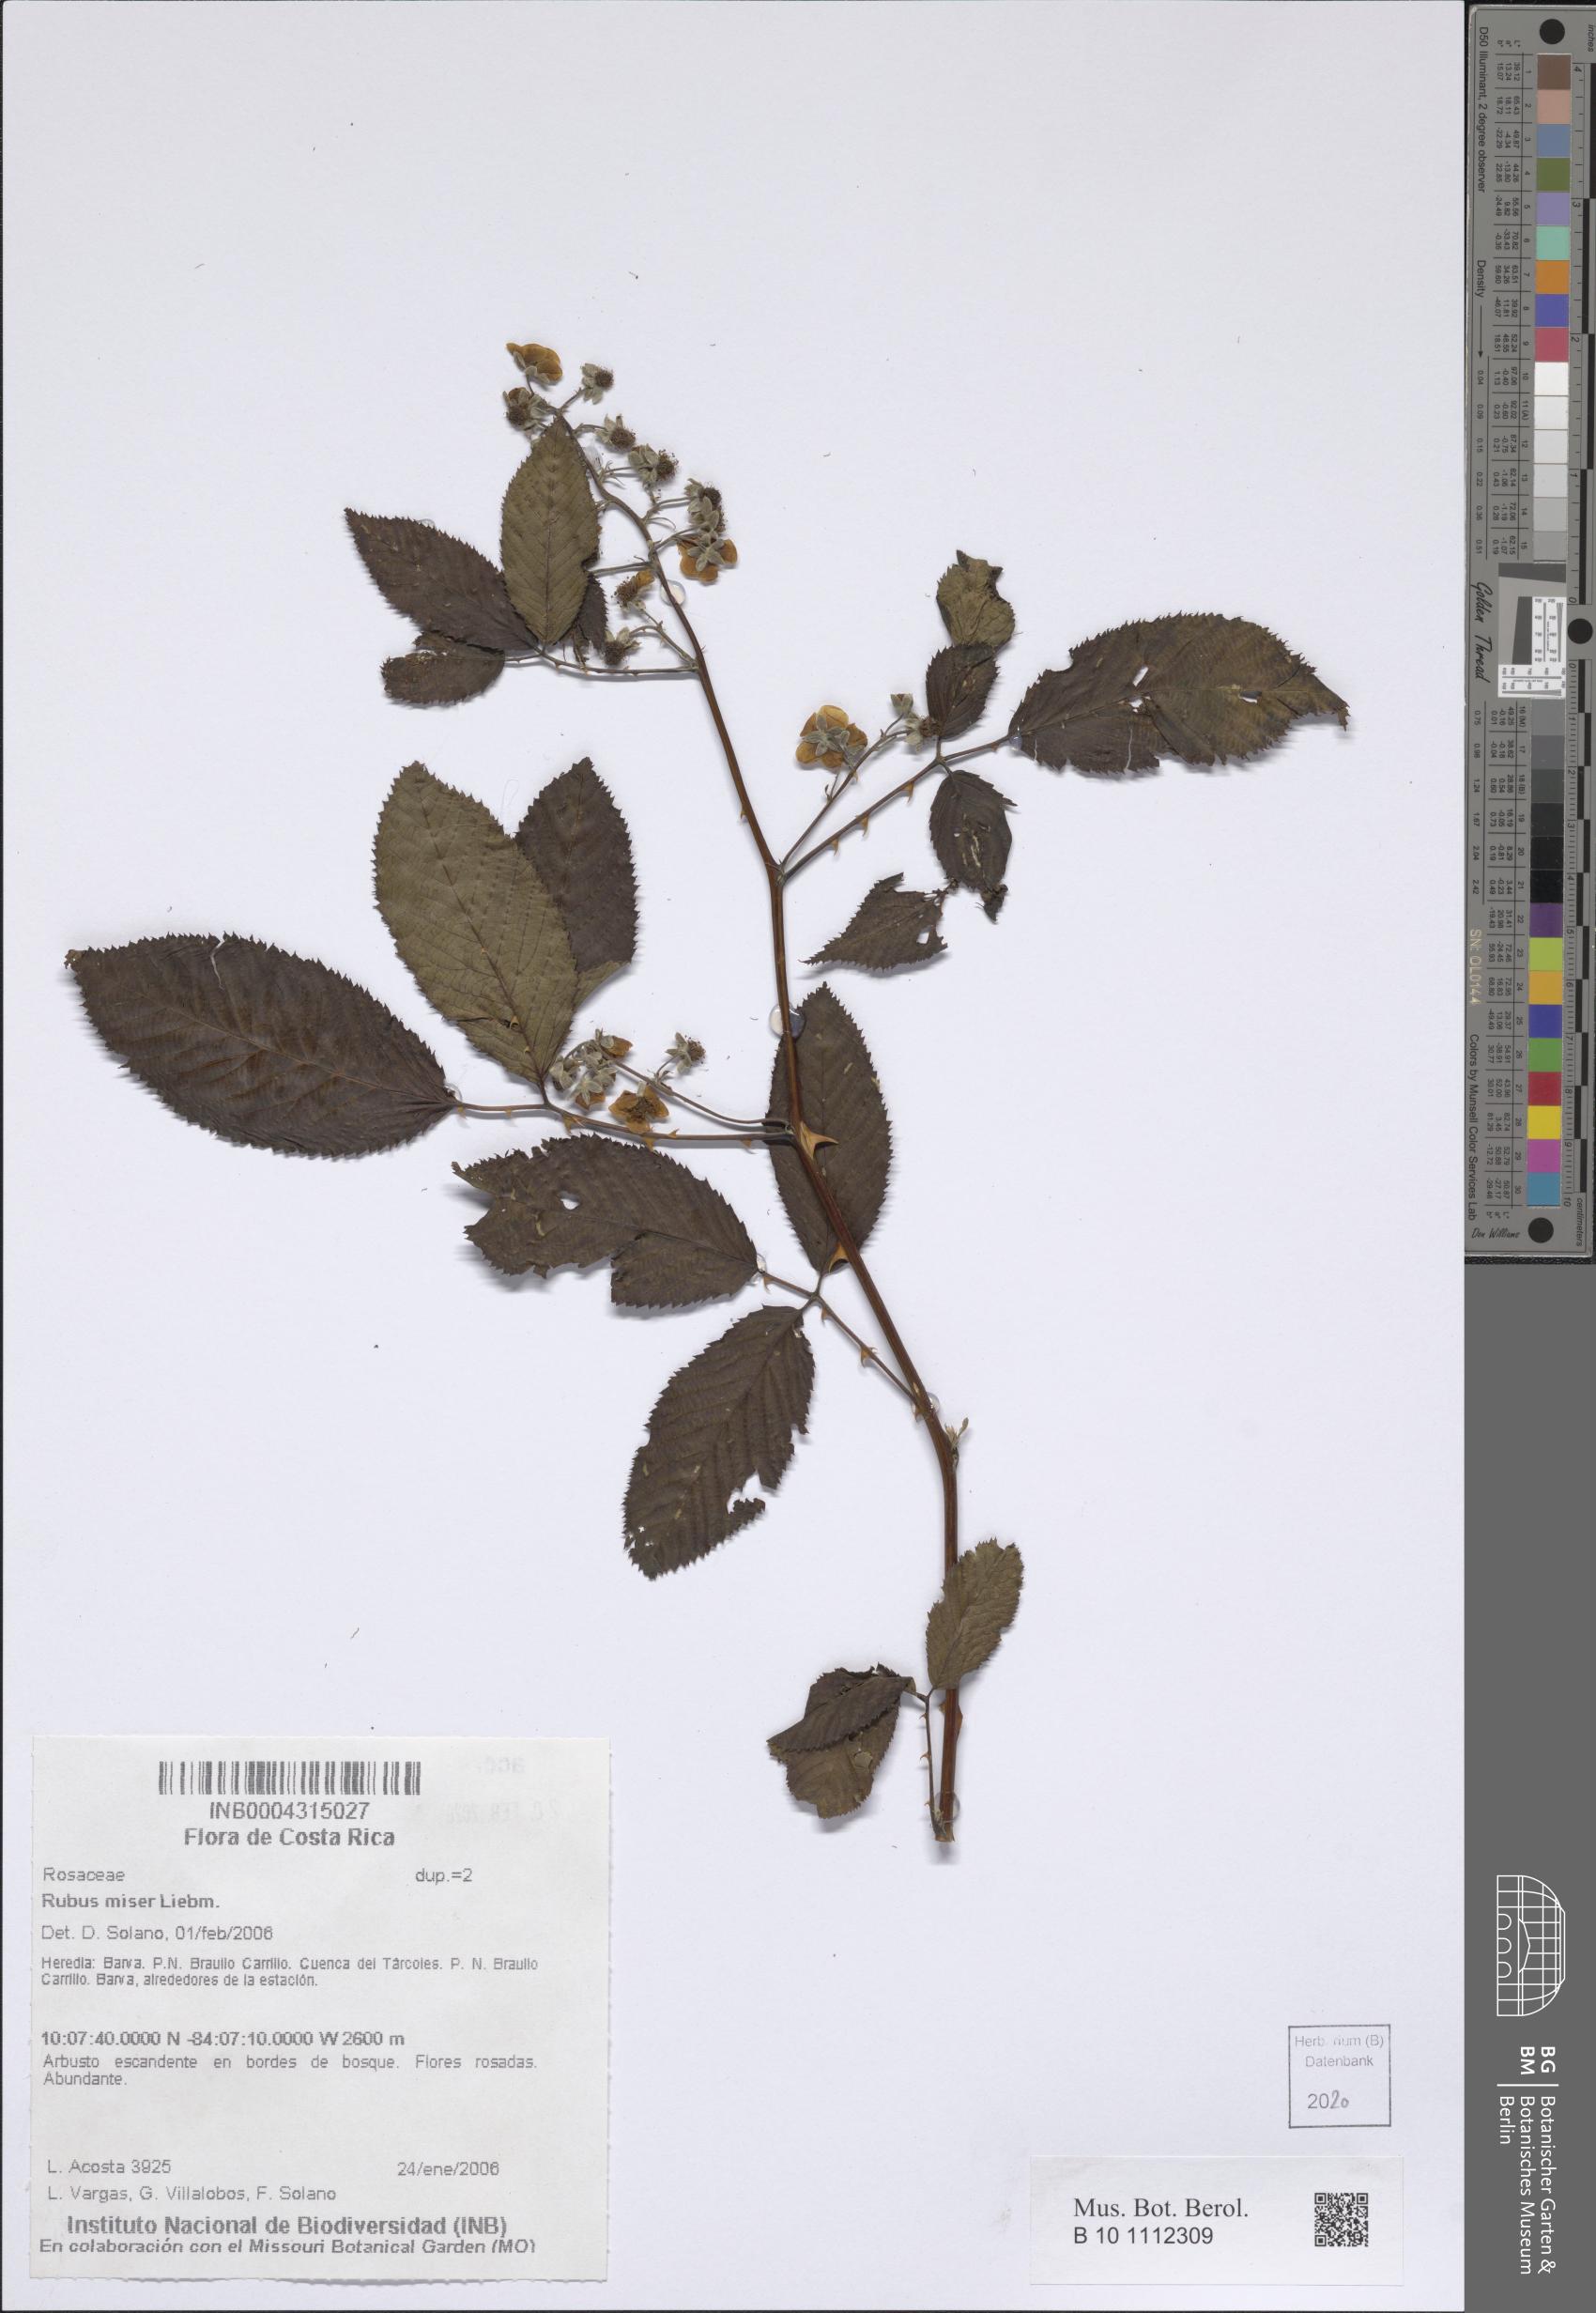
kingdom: Plantae
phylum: Tracheophyta
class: Magnoliopsida
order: Rosales
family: Rosaceae
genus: Rubus
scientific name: Rubus miser
